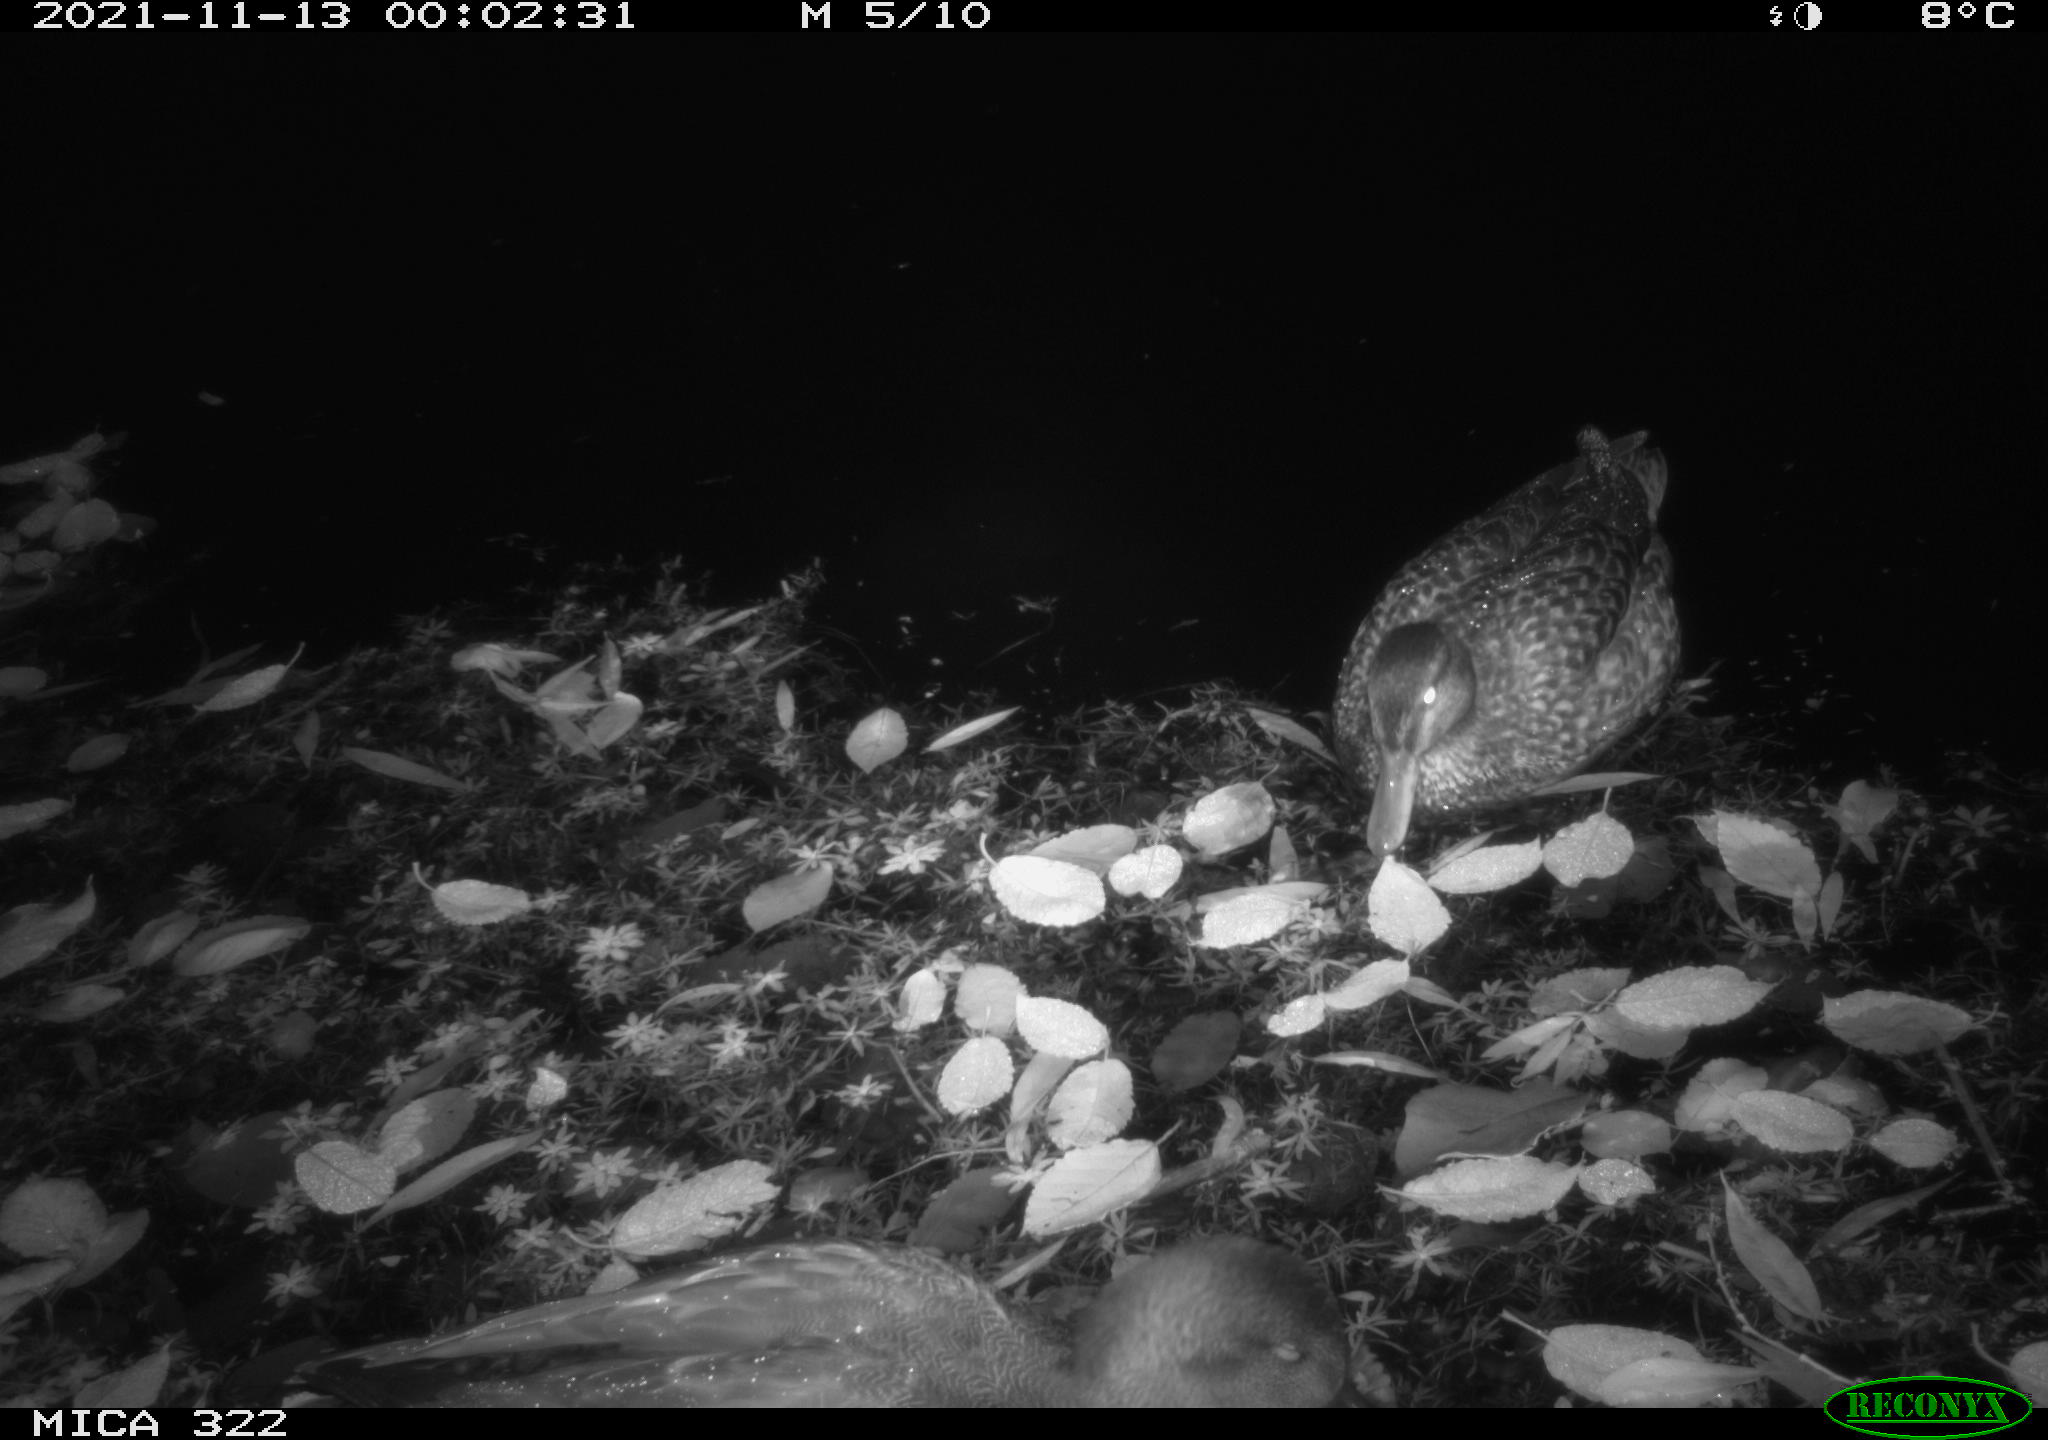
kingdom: Animalia
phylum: Chordata
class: Aves
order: Anseriformes
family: Anatidae
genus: Anas
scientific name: Anas platyrhynchos
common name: Mallard
